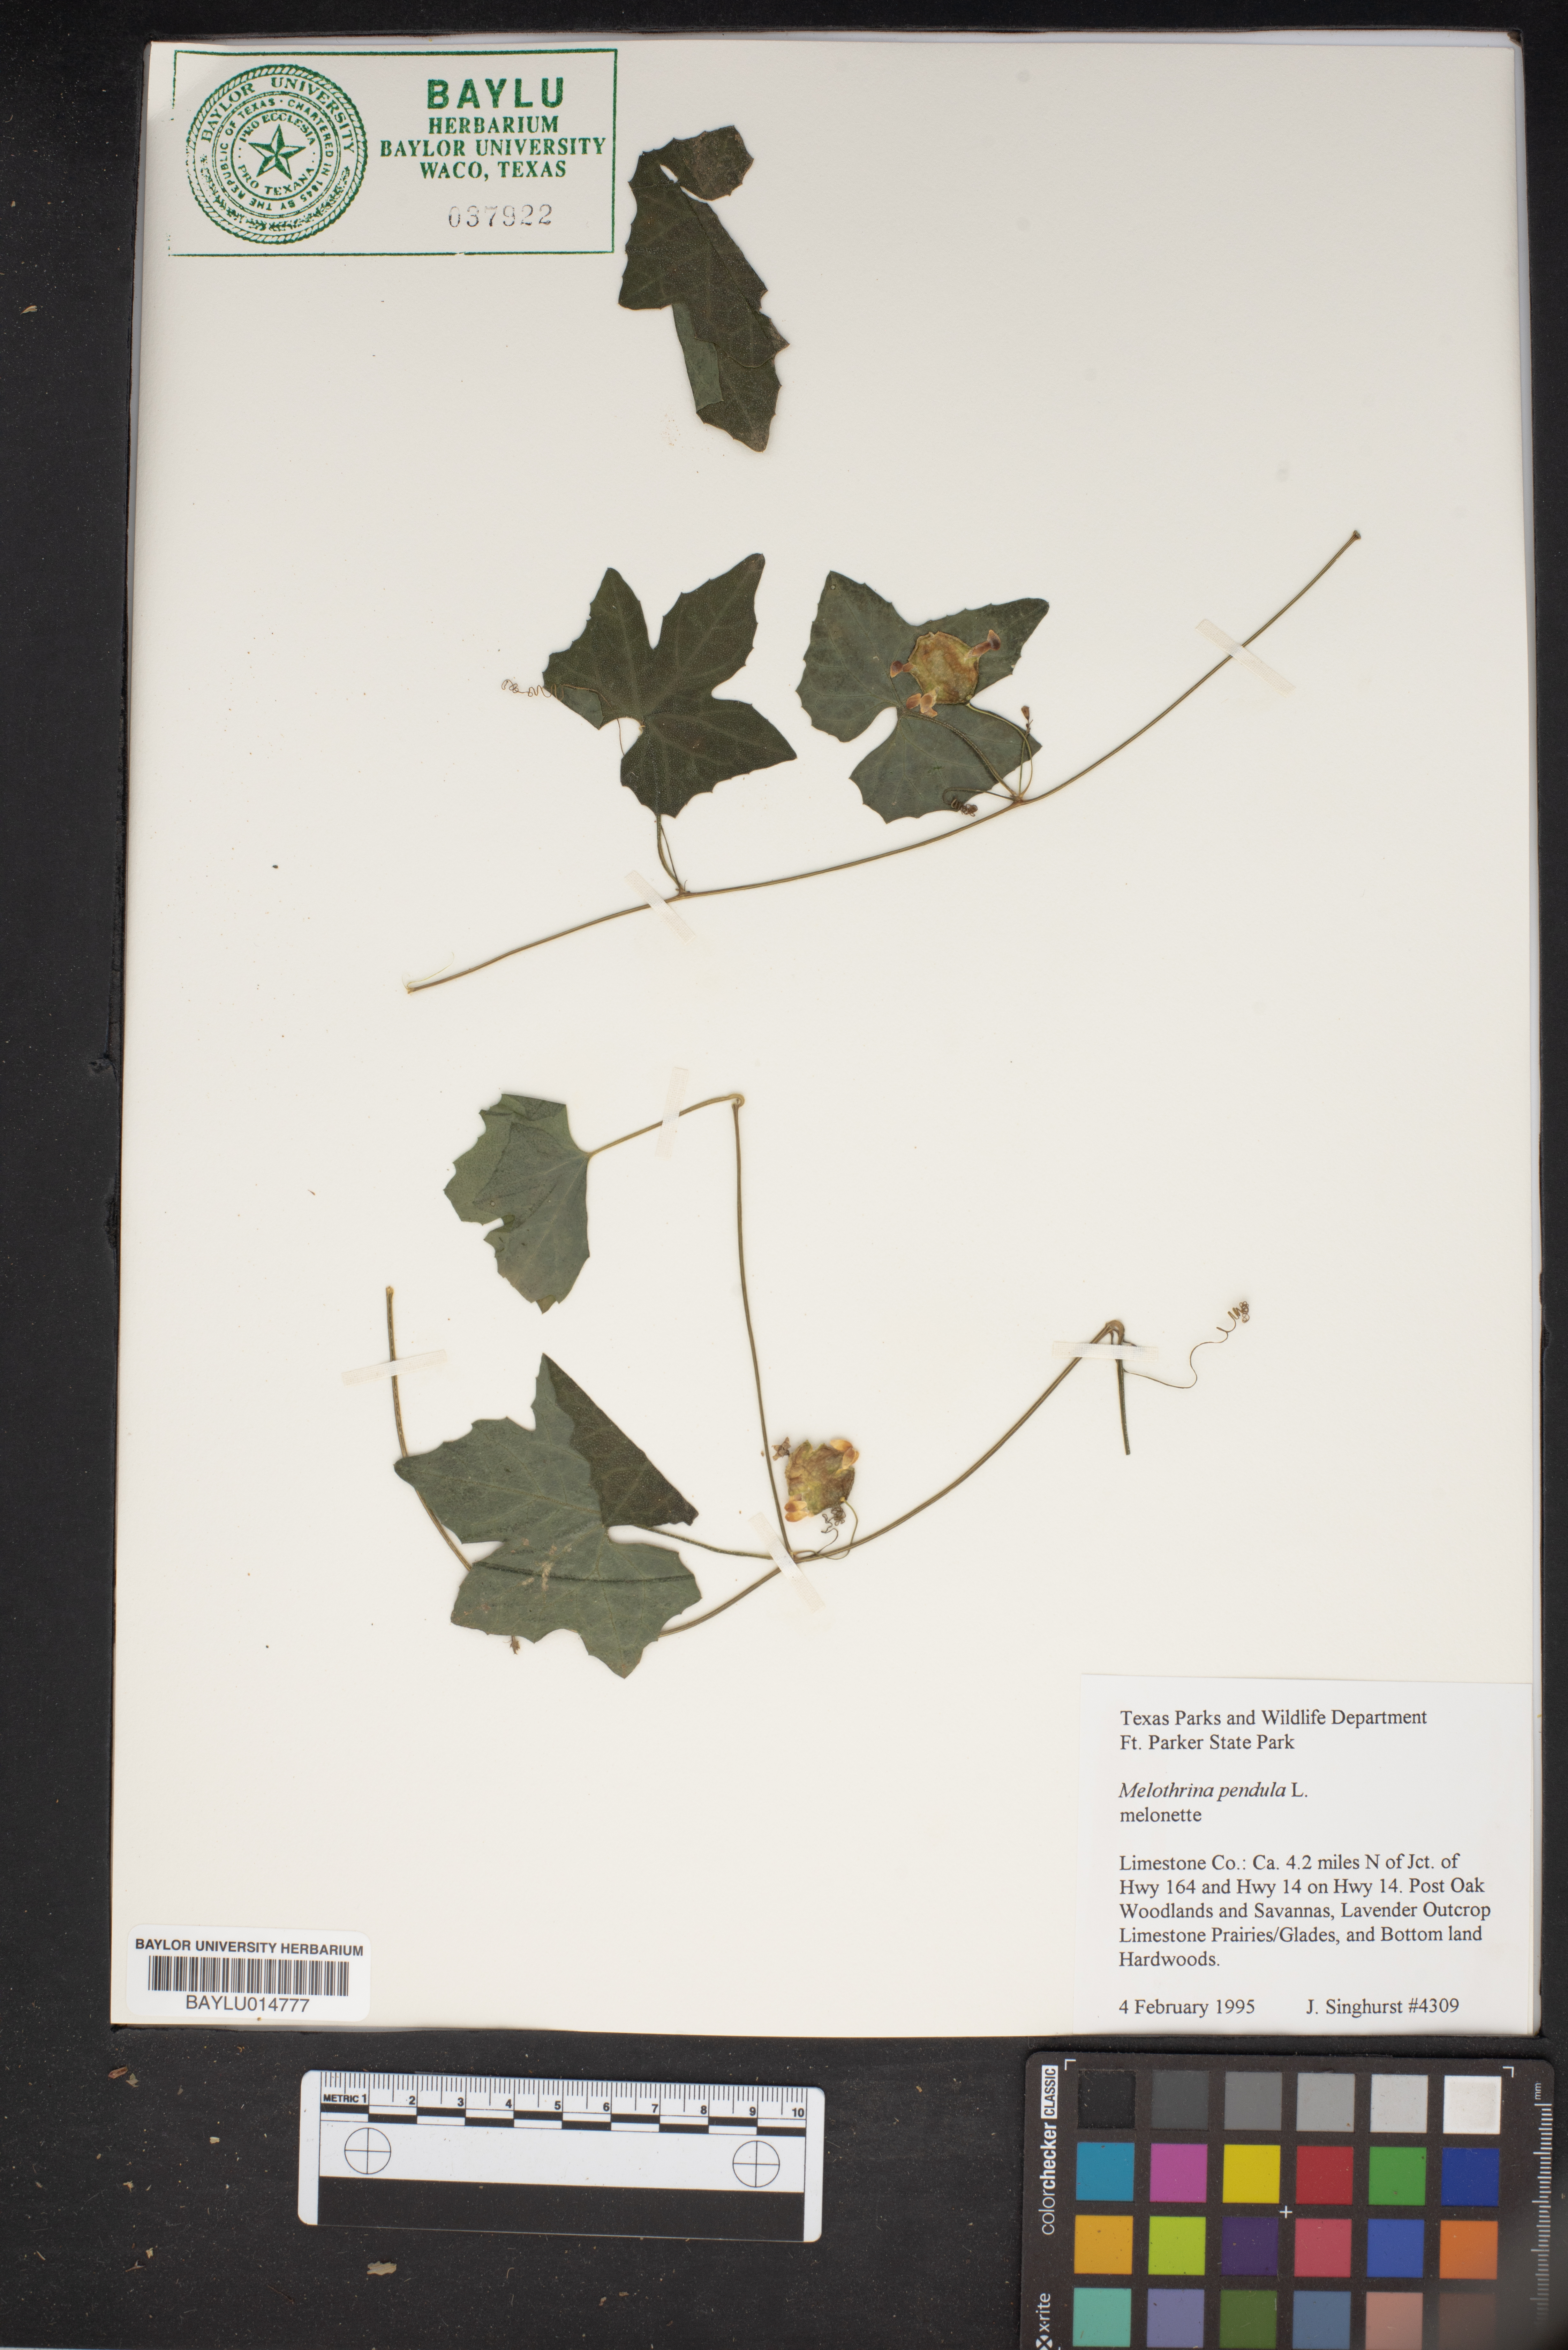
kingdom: Plantae
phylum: Tracheophyta
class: Magnoliopsida
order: Cucurbitales
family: Cucurbitaceae
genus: Melothria
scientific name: Melothria pendula
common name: Creeping-cucumber
